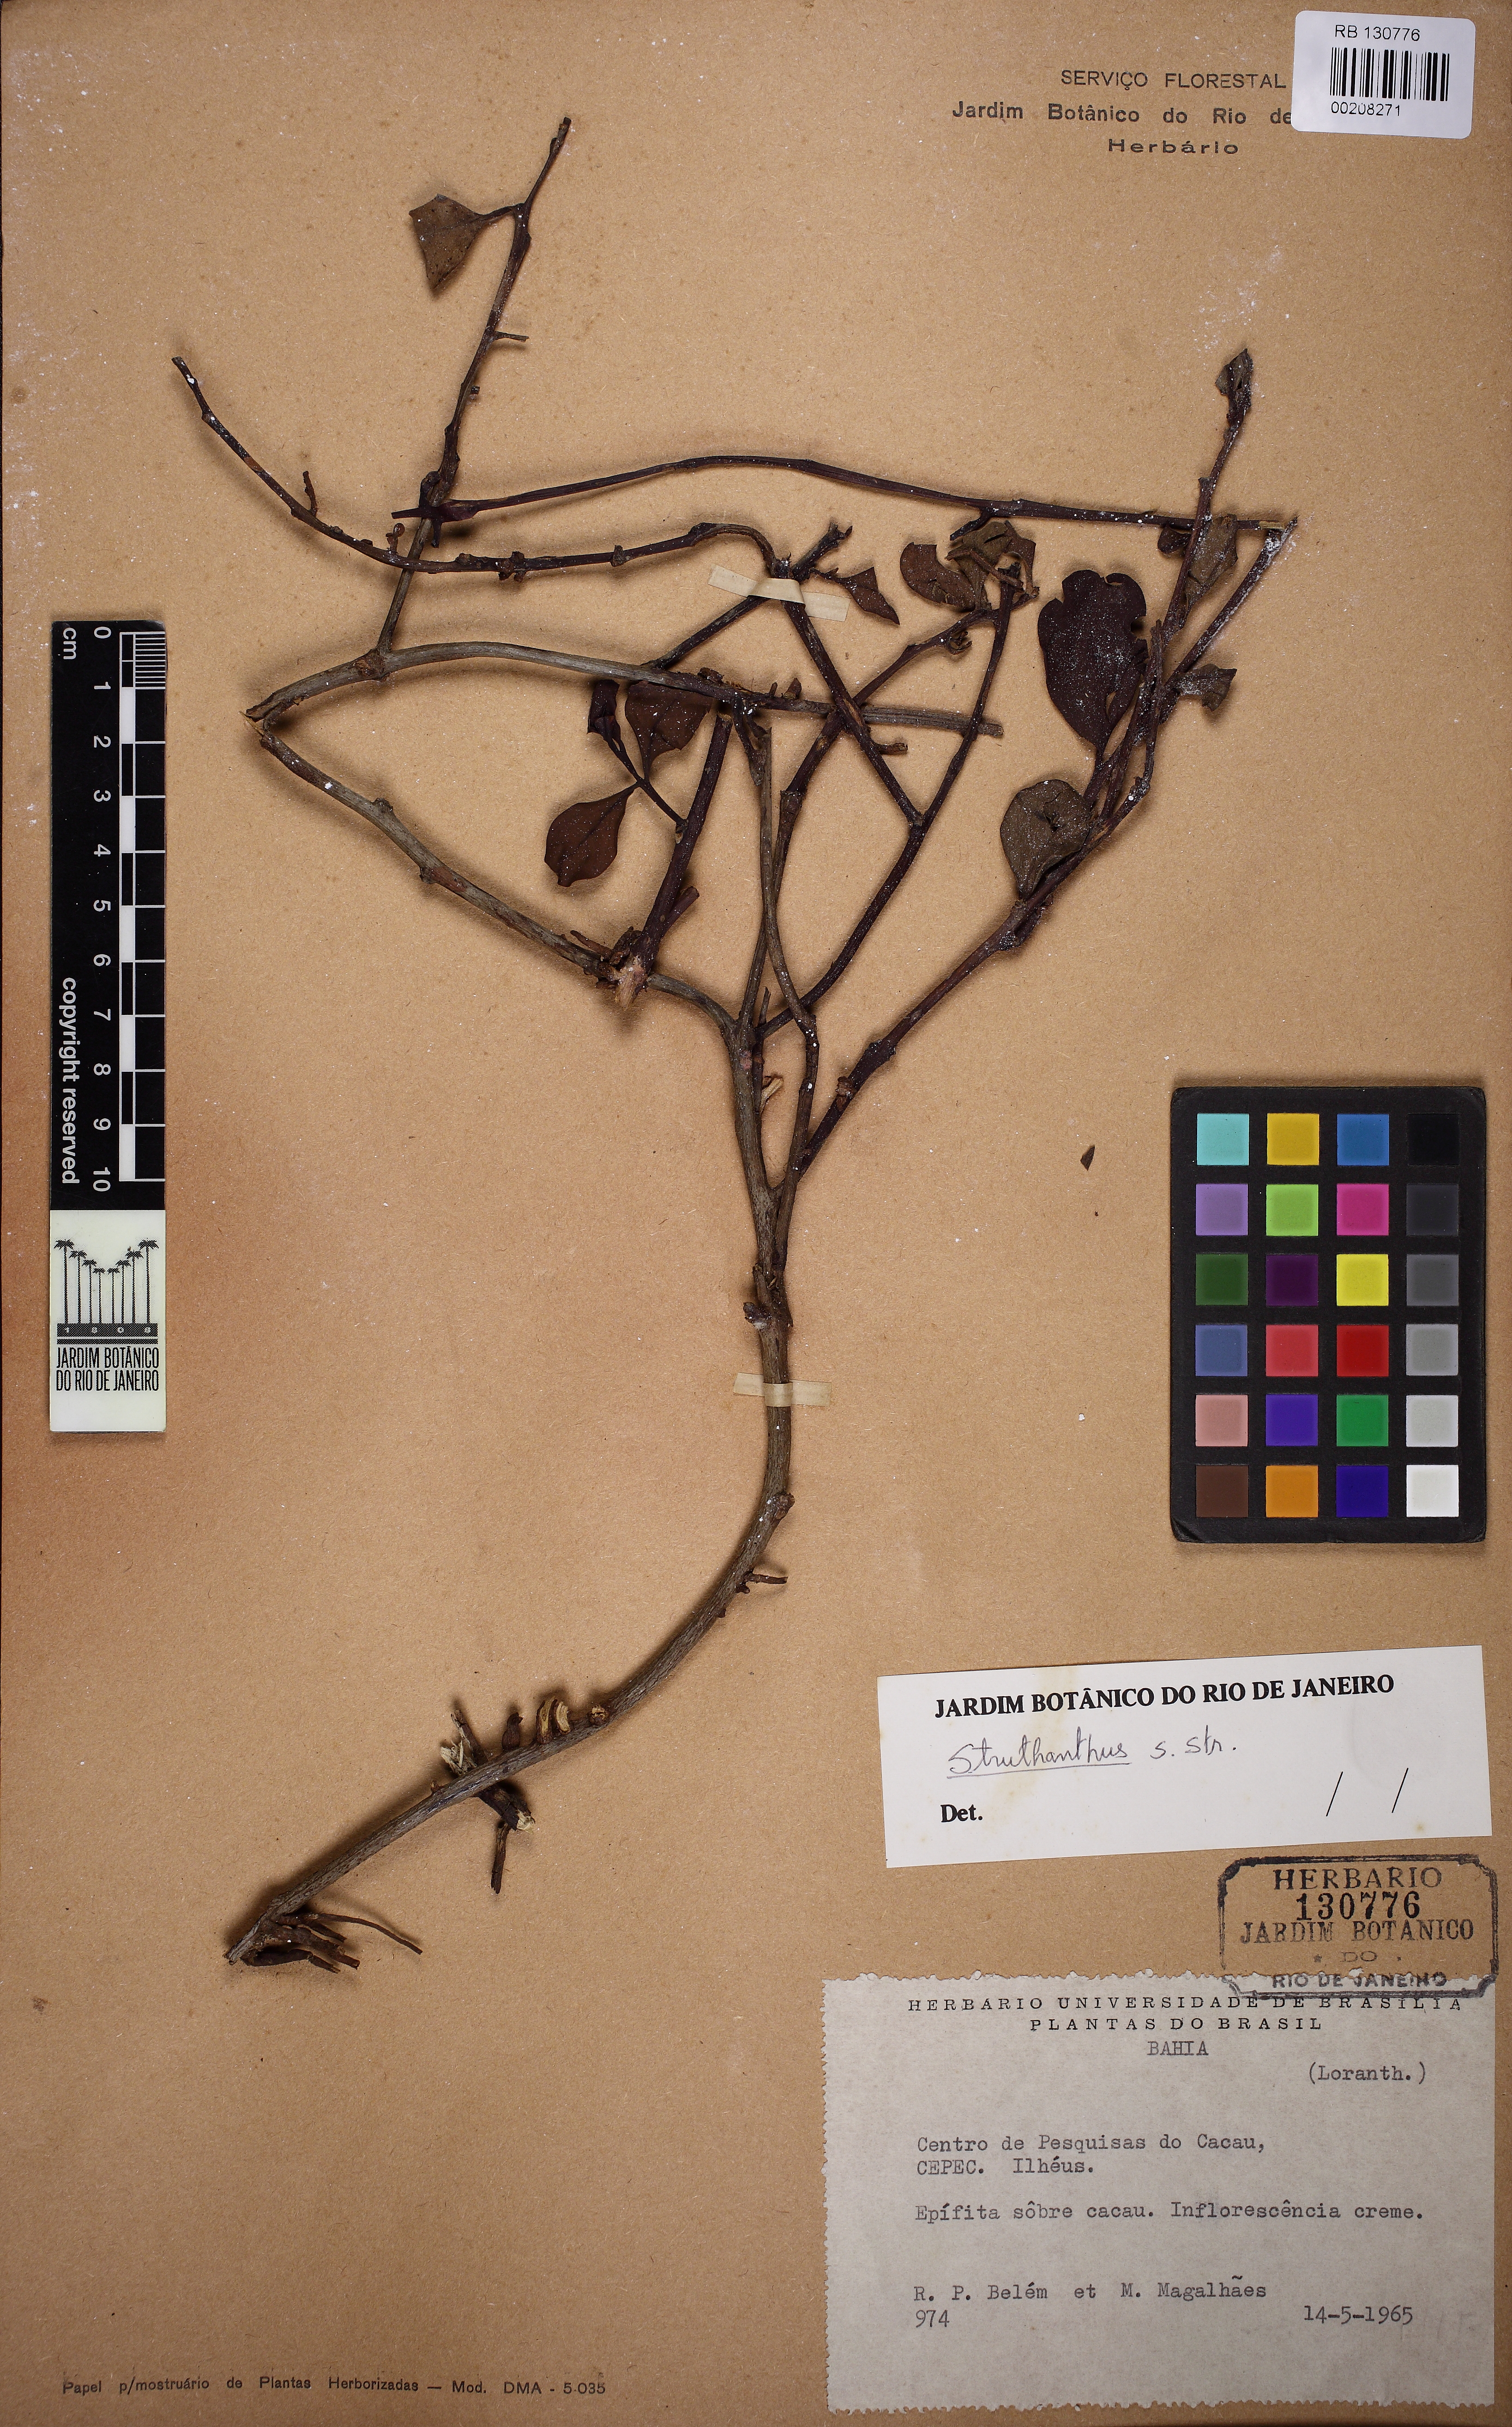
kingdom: Plantae
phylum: Tracheophyta
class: Magnoliopsida
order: Santalales
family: Loranthaceae
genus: Struthanthus
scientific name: Struthanthus
